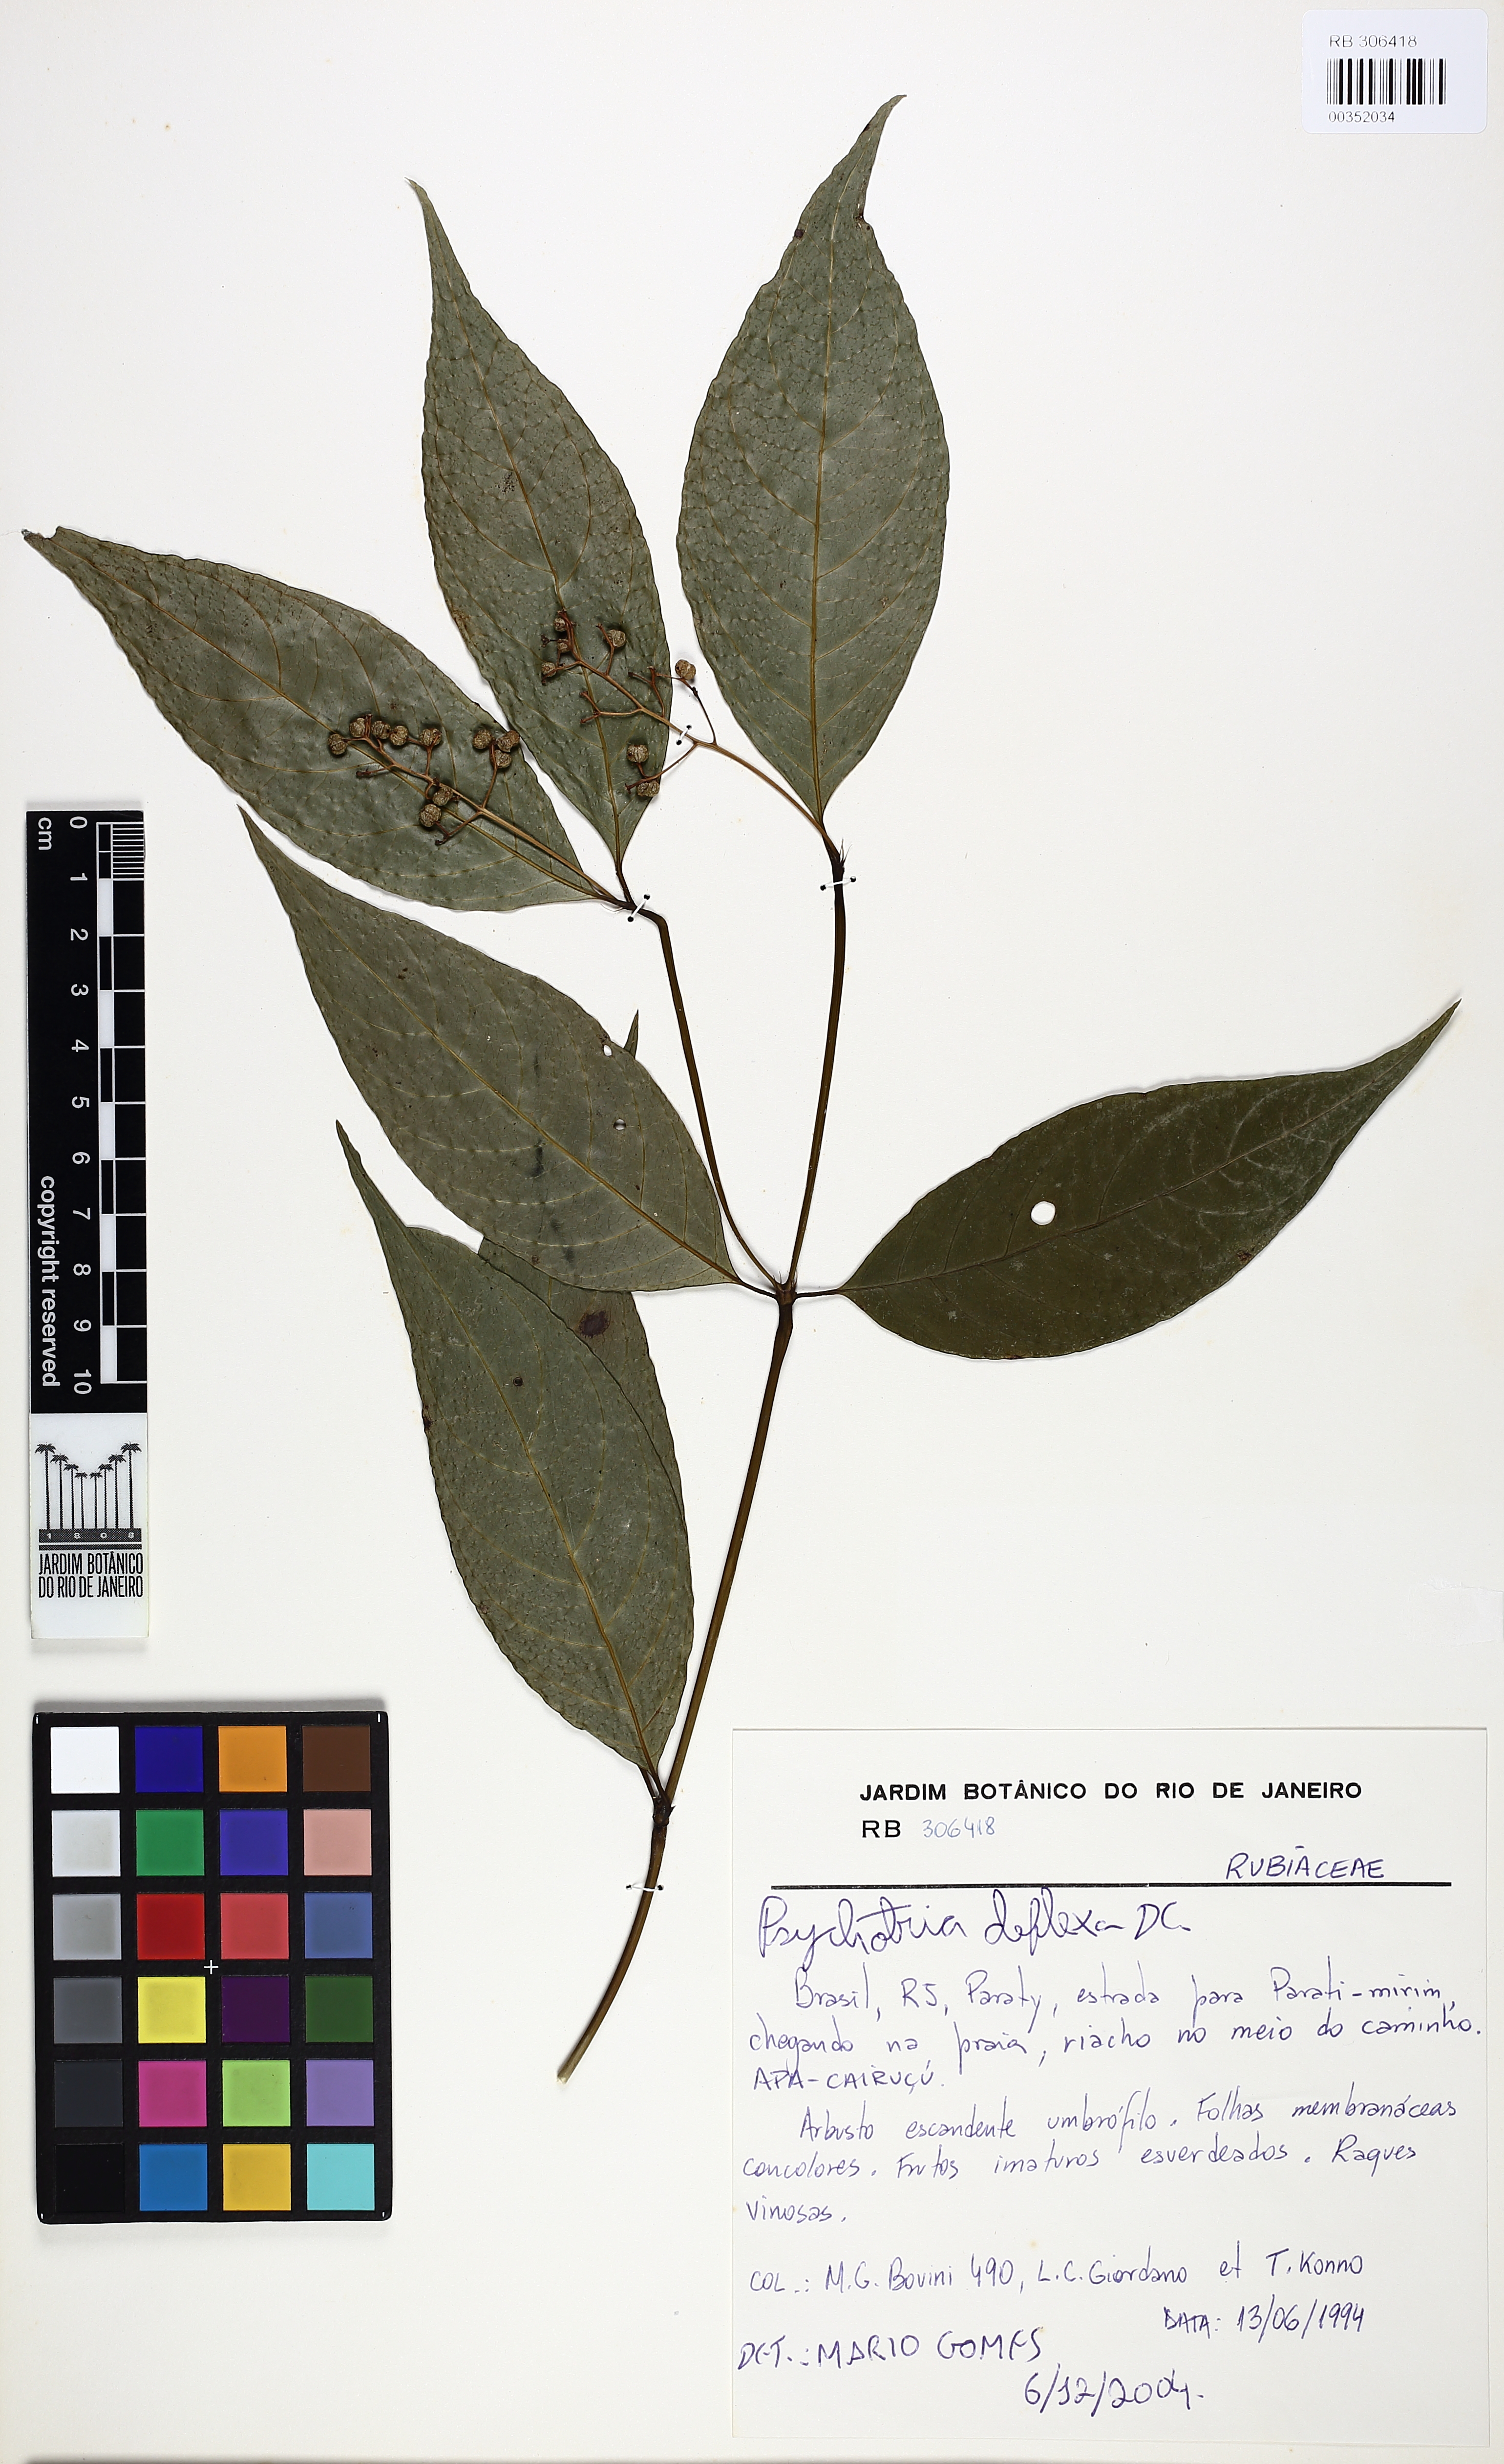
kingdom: Plantae
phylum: Tracheophyta
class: Magnoliopsida
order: Gentianales
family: Rubiaceae
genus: Palicourea
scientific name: Palicourea deflexa
